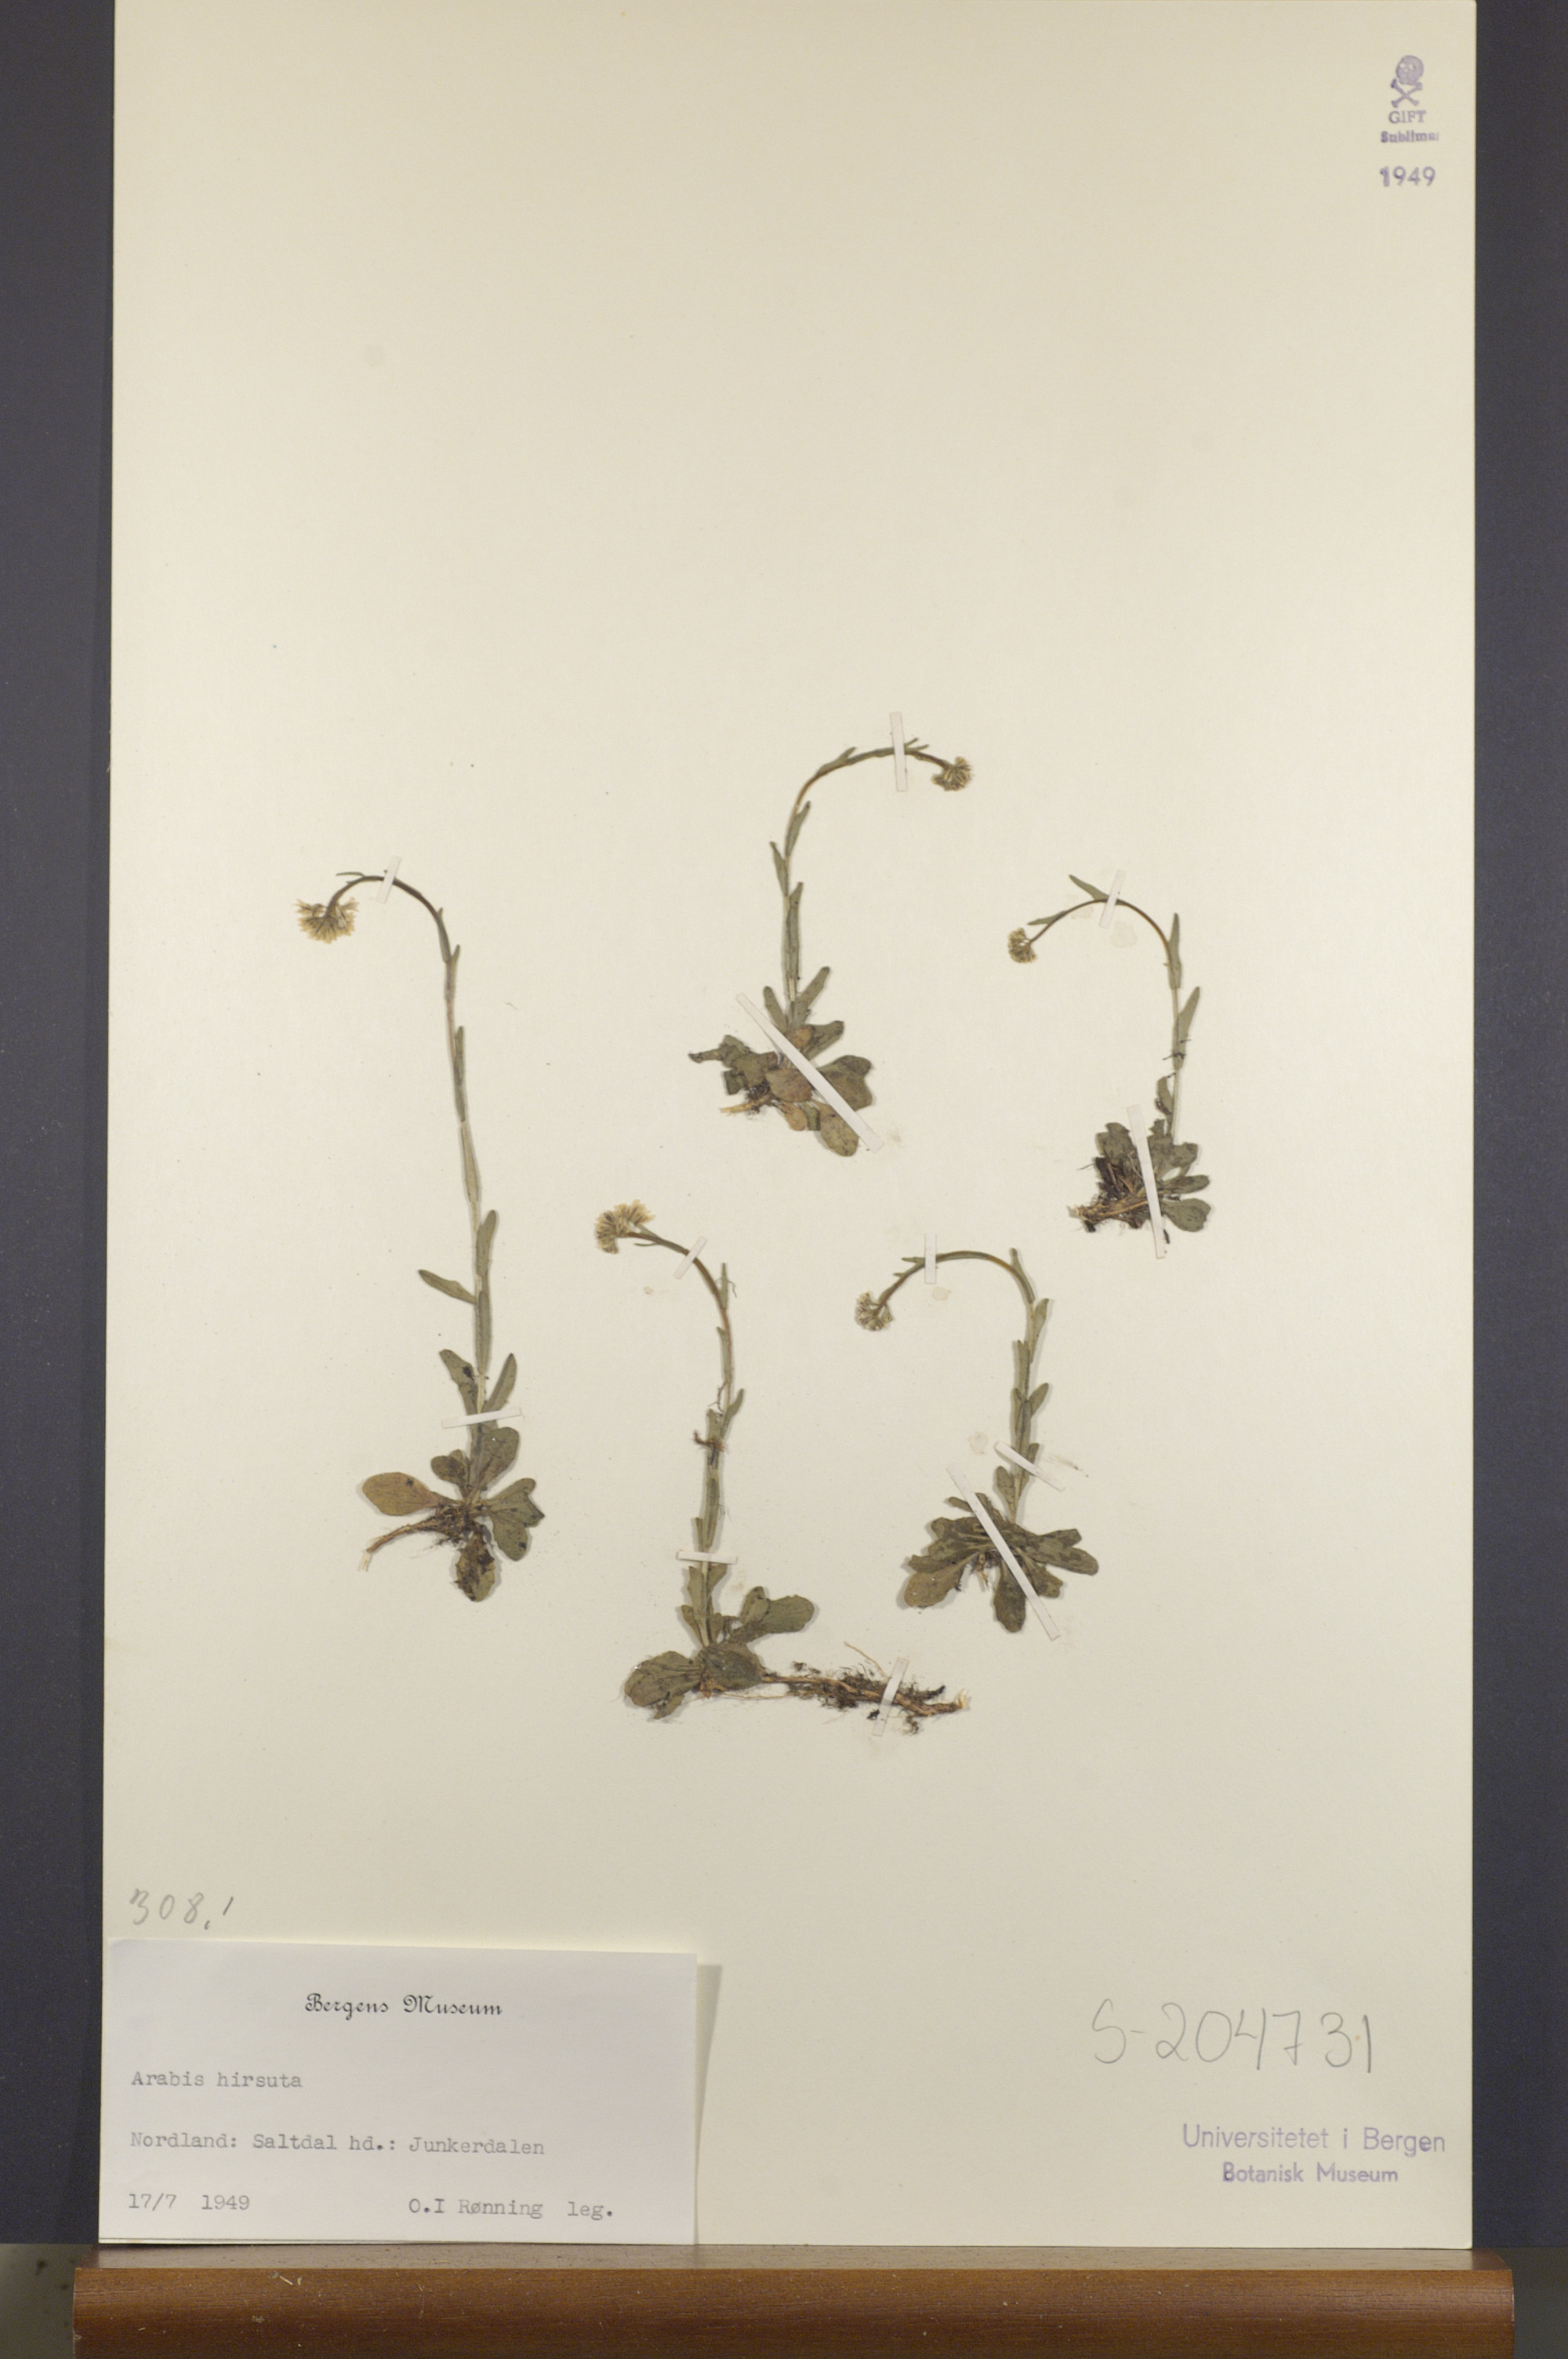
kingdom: Plantae
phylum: Tracheophyta
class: Magnoliopsida
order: Brassicales
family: Brassicaceae
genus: Arabis
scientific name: Arabis hirsuta
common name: Hairy rock-cress
